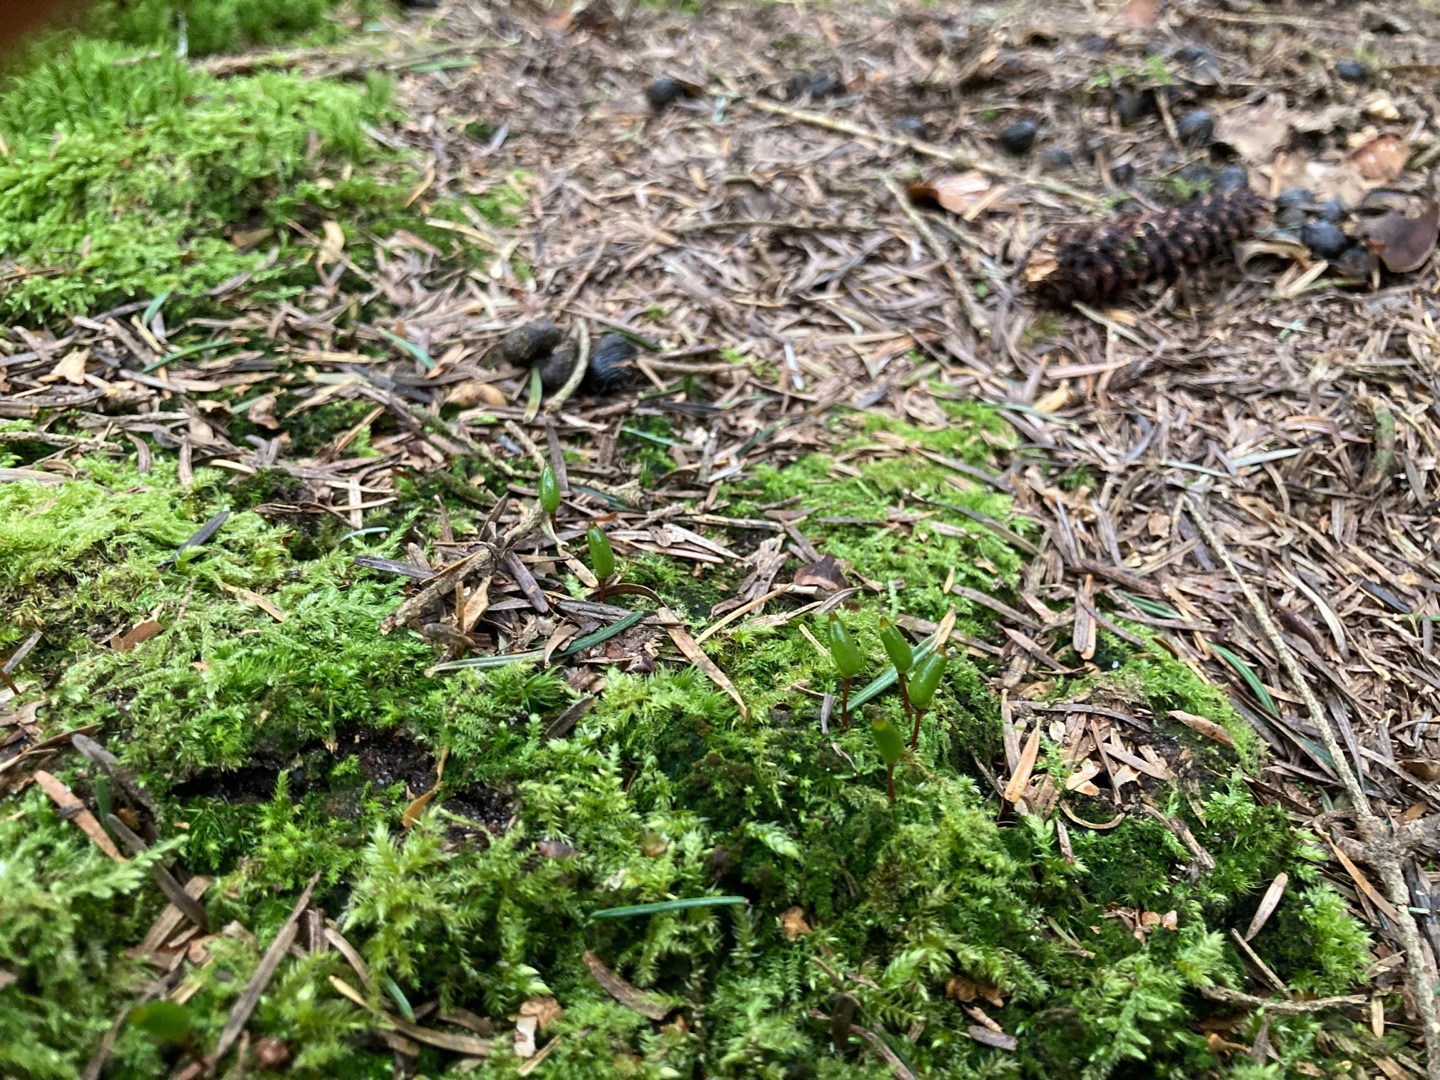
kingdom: Plantae
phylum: Bryophyta
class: Bryopsida
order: Buxbaumiales
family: Buxbaumiaceae
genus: Buxbaumia
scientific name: Buxbaumia viridis
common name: Grøn buxbaumia
